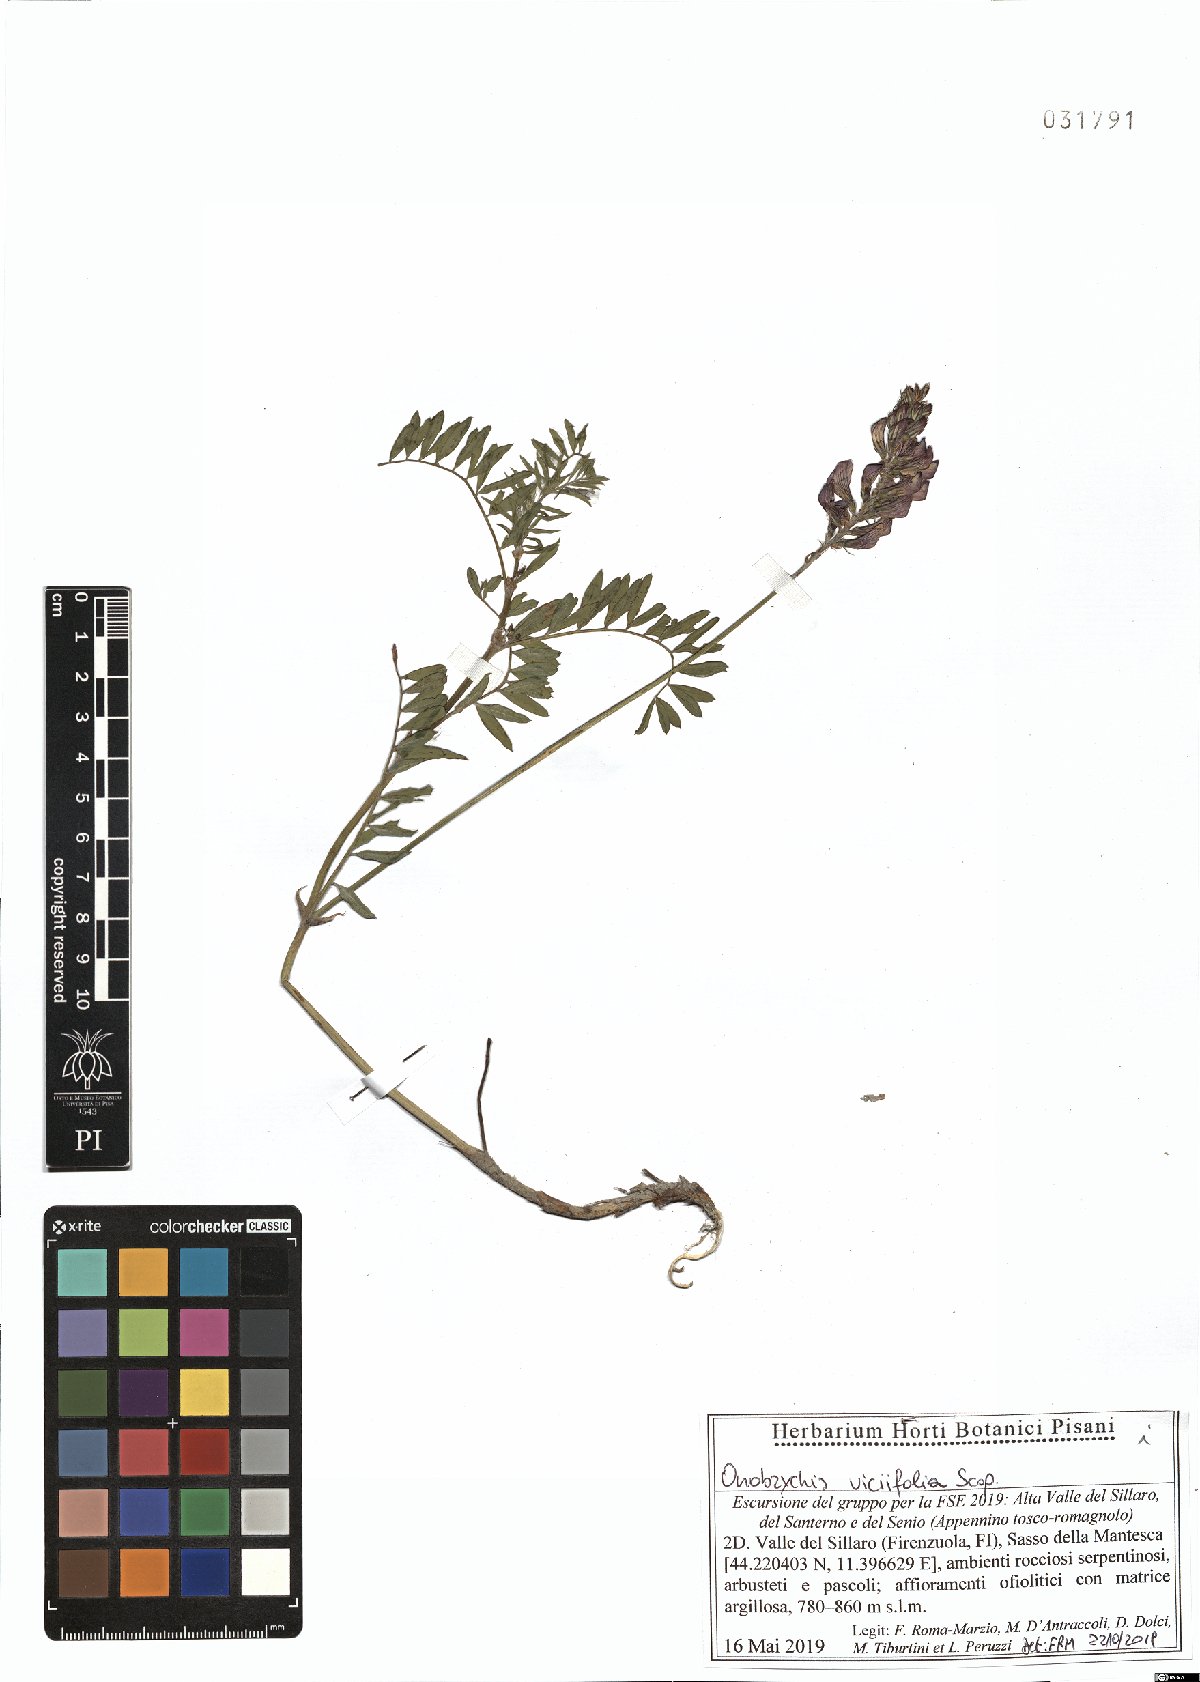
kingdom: Plantae
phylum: Tracheophyta
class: Magnoliopsida
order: Fabales
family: Fabaceae
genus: Onobrychis
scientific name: Onobrychis viciifolia
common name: Sainfoin
